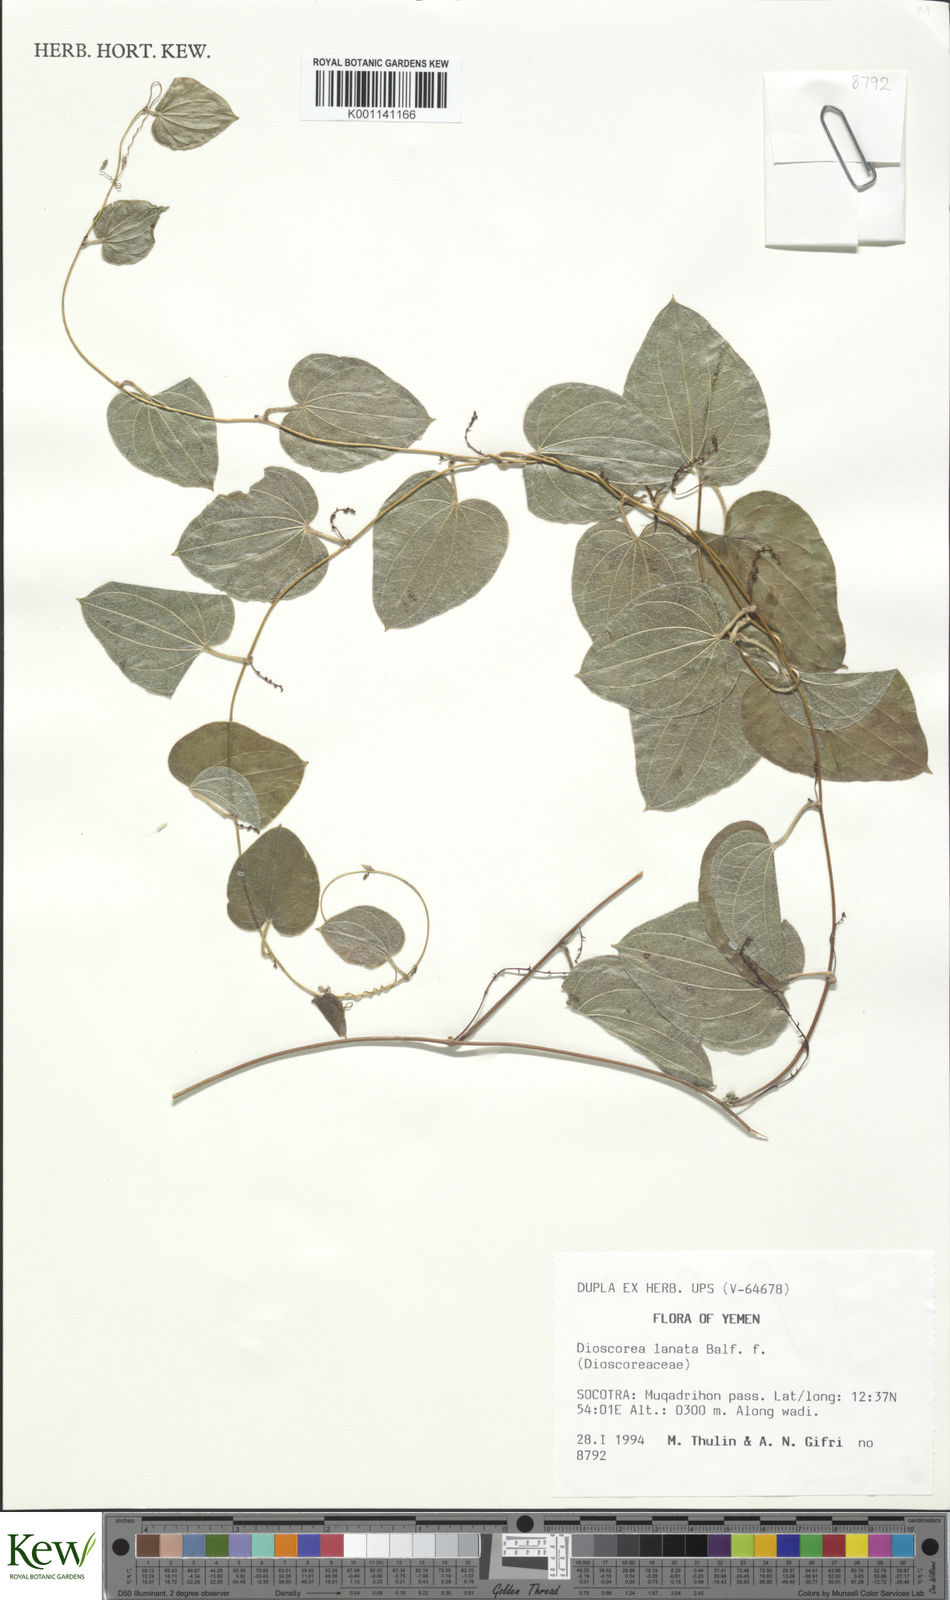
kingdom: Plantae
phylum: Tracheophyta
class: Liliopsida
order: Dioscoreales
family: Dioscoreaceae
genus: Dioscorea
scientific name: Dioscorea
